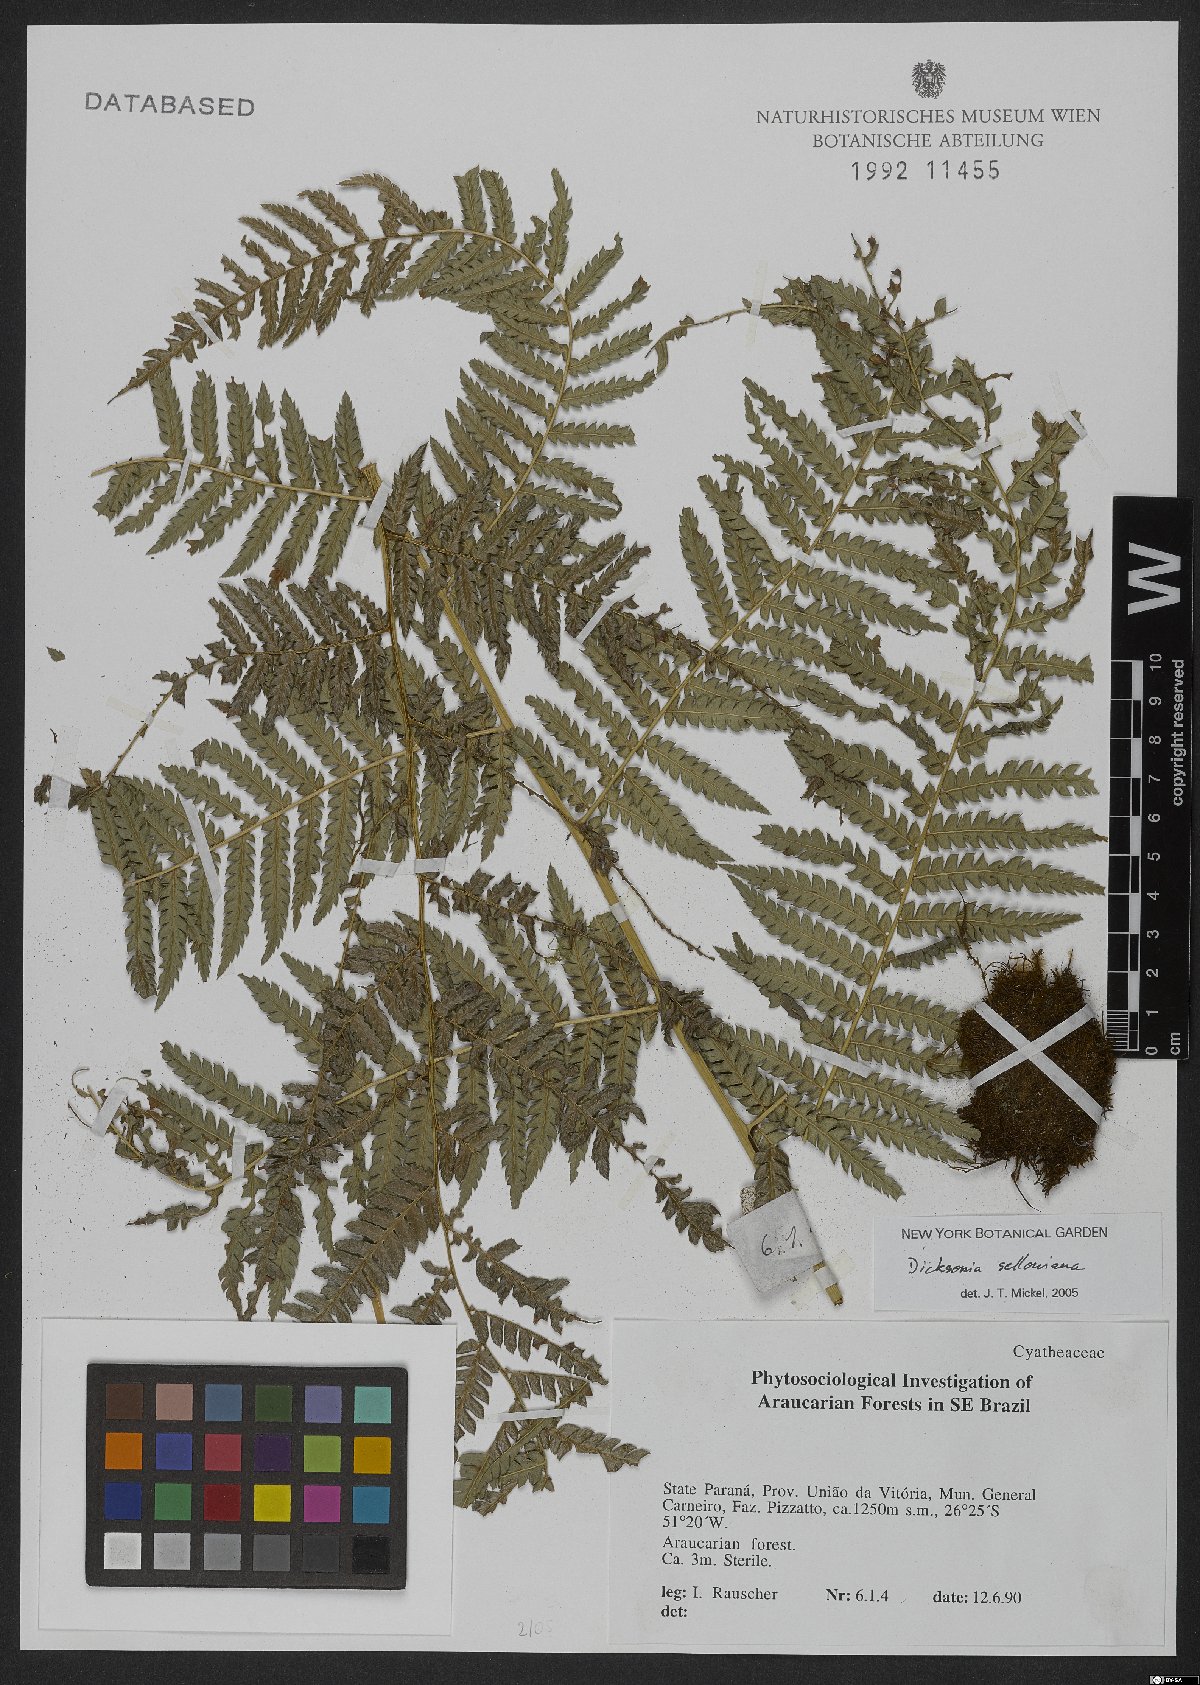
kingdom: Plantae
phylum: Tracheophyta
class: Polypodiopsida
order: Cyatheales
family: Dicksoniaceae
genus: Dicksonia
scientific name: Dicksonia sellowiana
